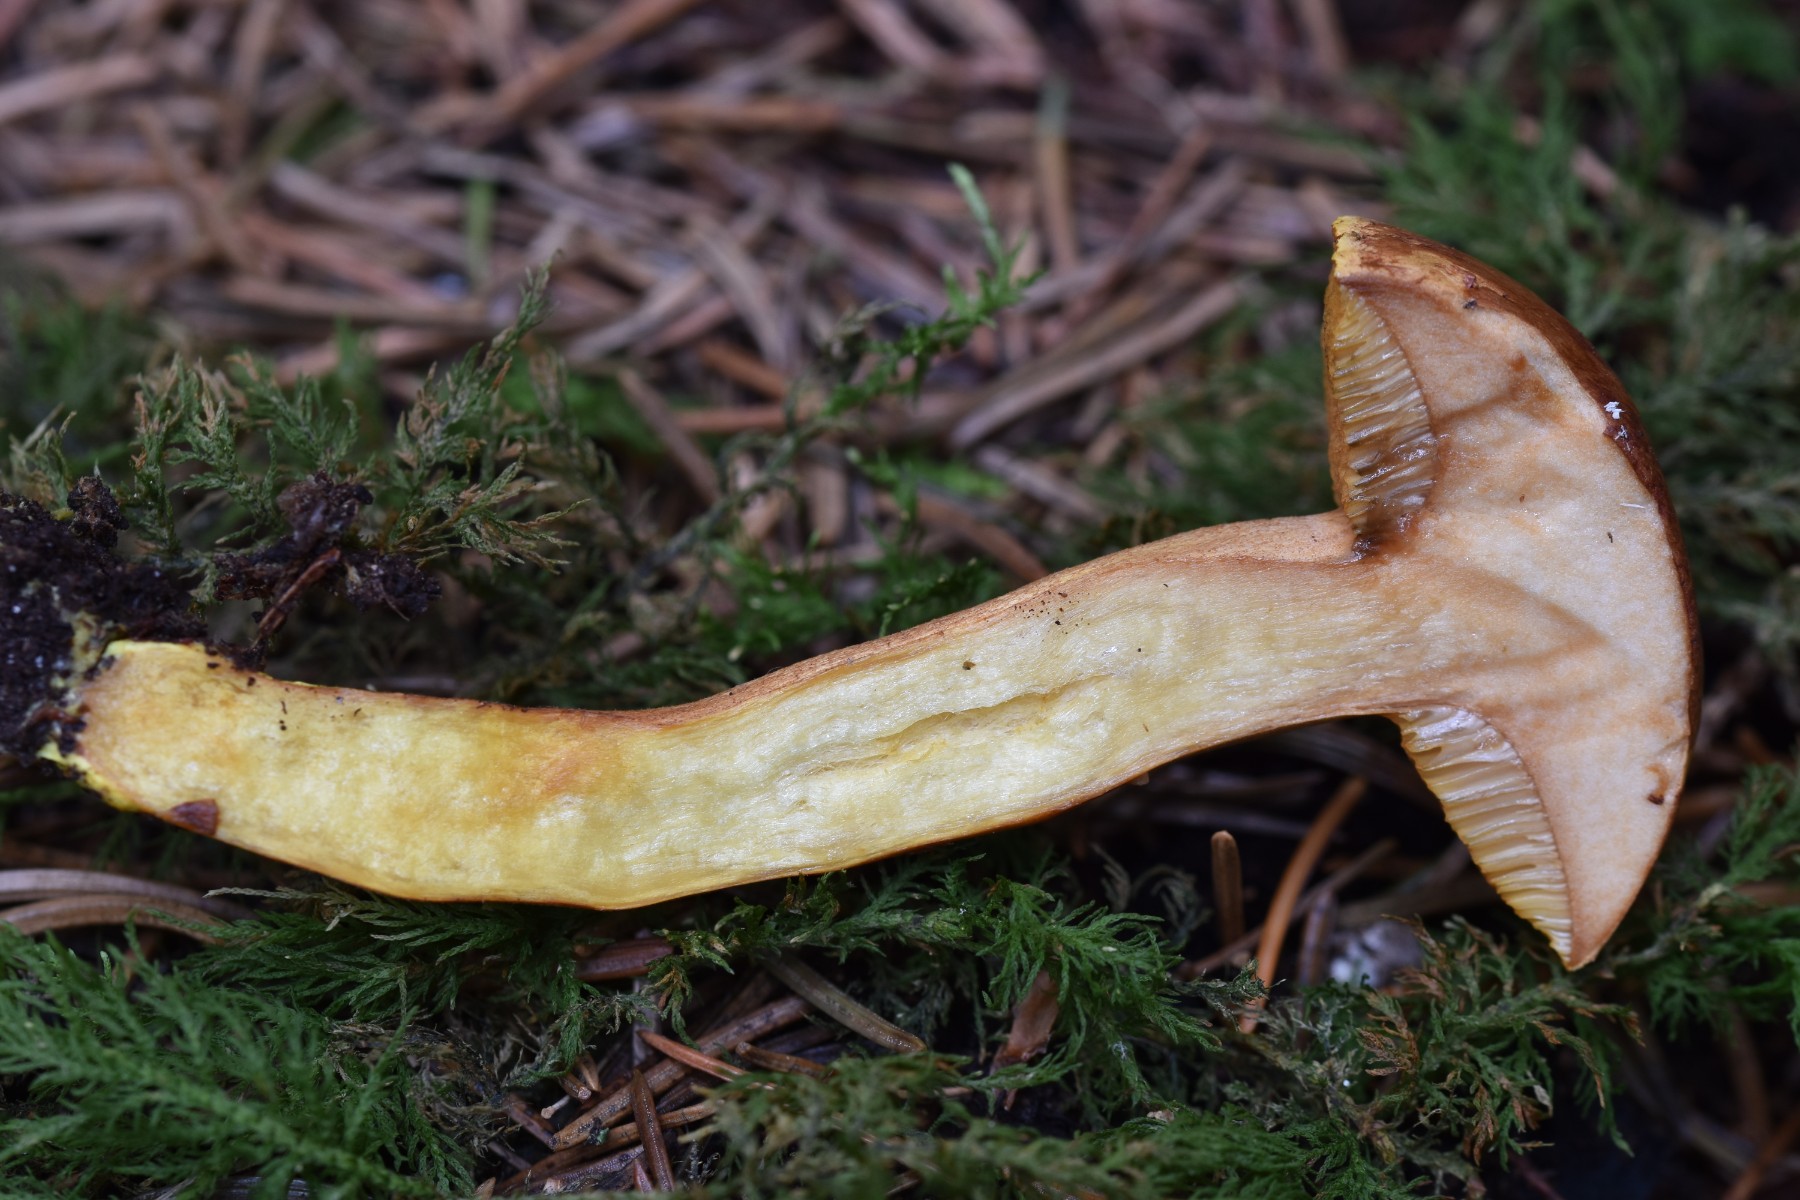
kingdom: Fungi
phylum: Basidiomycota
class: Agaricomycetes
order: Boletales
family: Boletaceae
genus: Chalciporus
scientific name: Chalciporus piperatus
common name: peberrørhat
